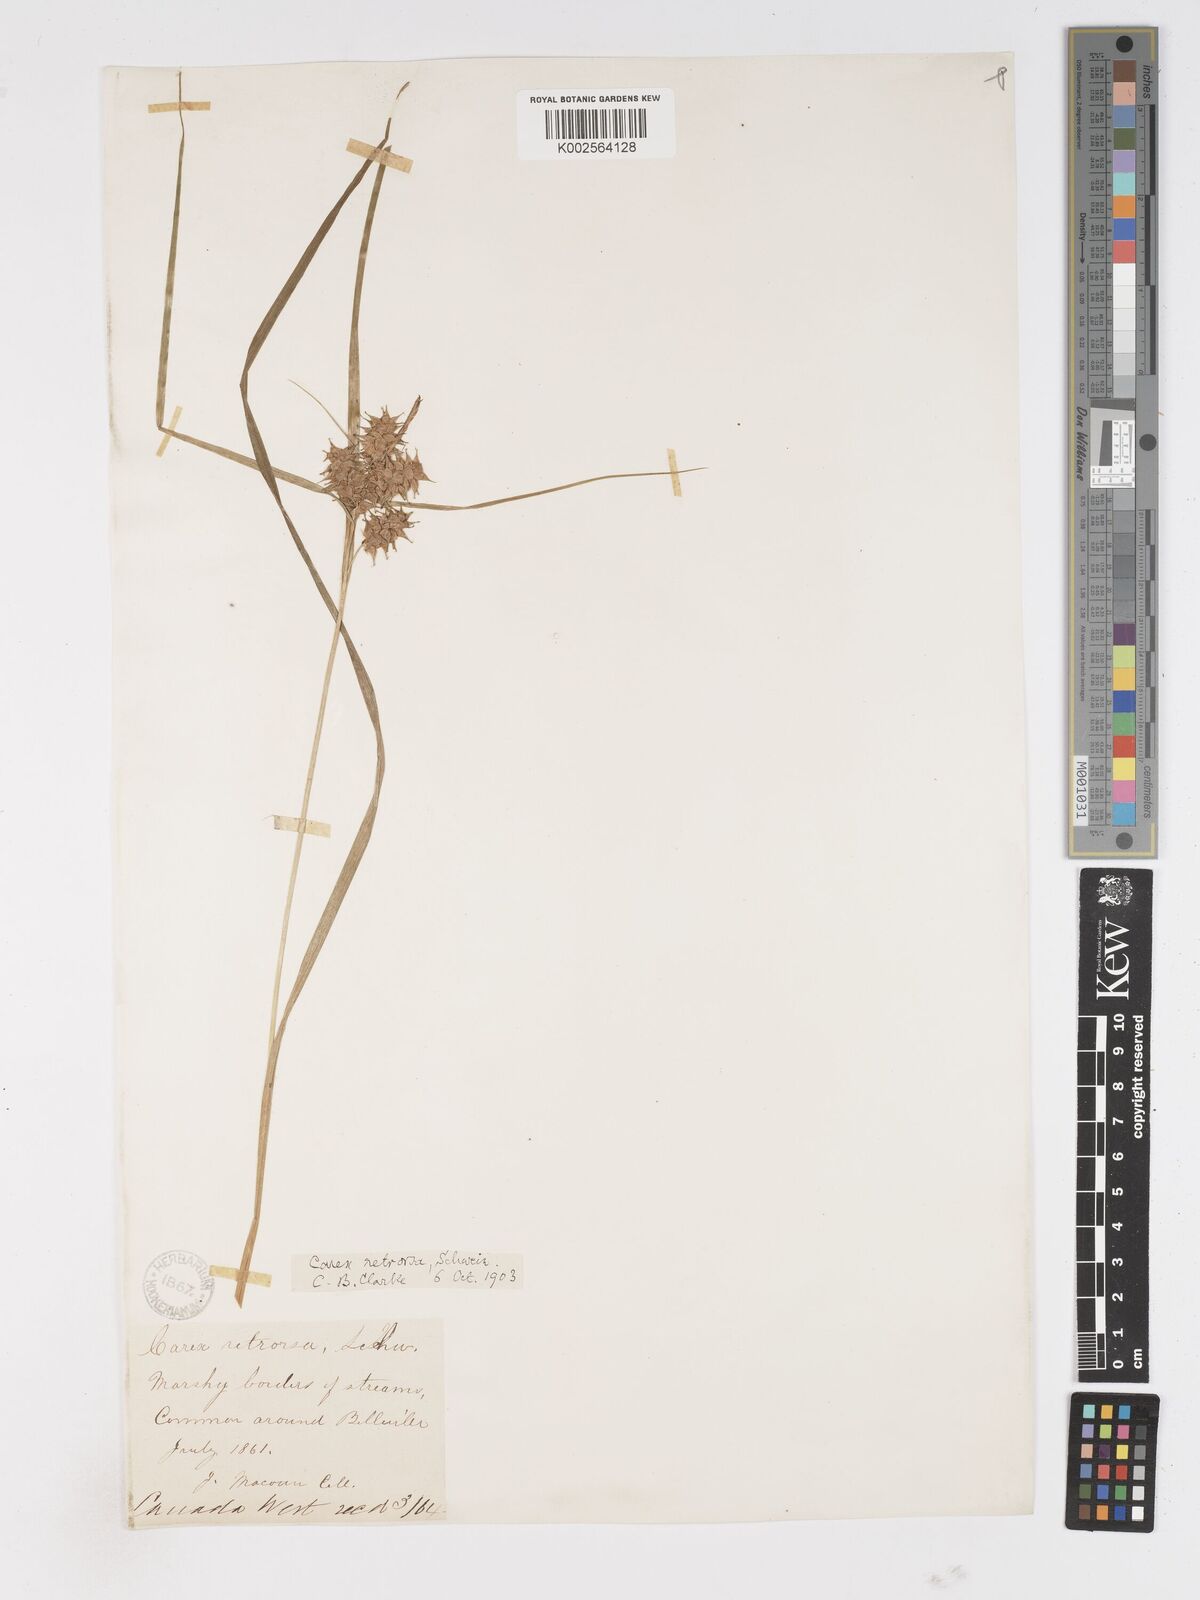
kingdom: Plantae
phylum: Tracheophyta
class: Liliopsida
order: Poales
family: Cyperaceae
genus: Carex
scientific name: Carex retrorsa
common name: Knot-sheath sedge
